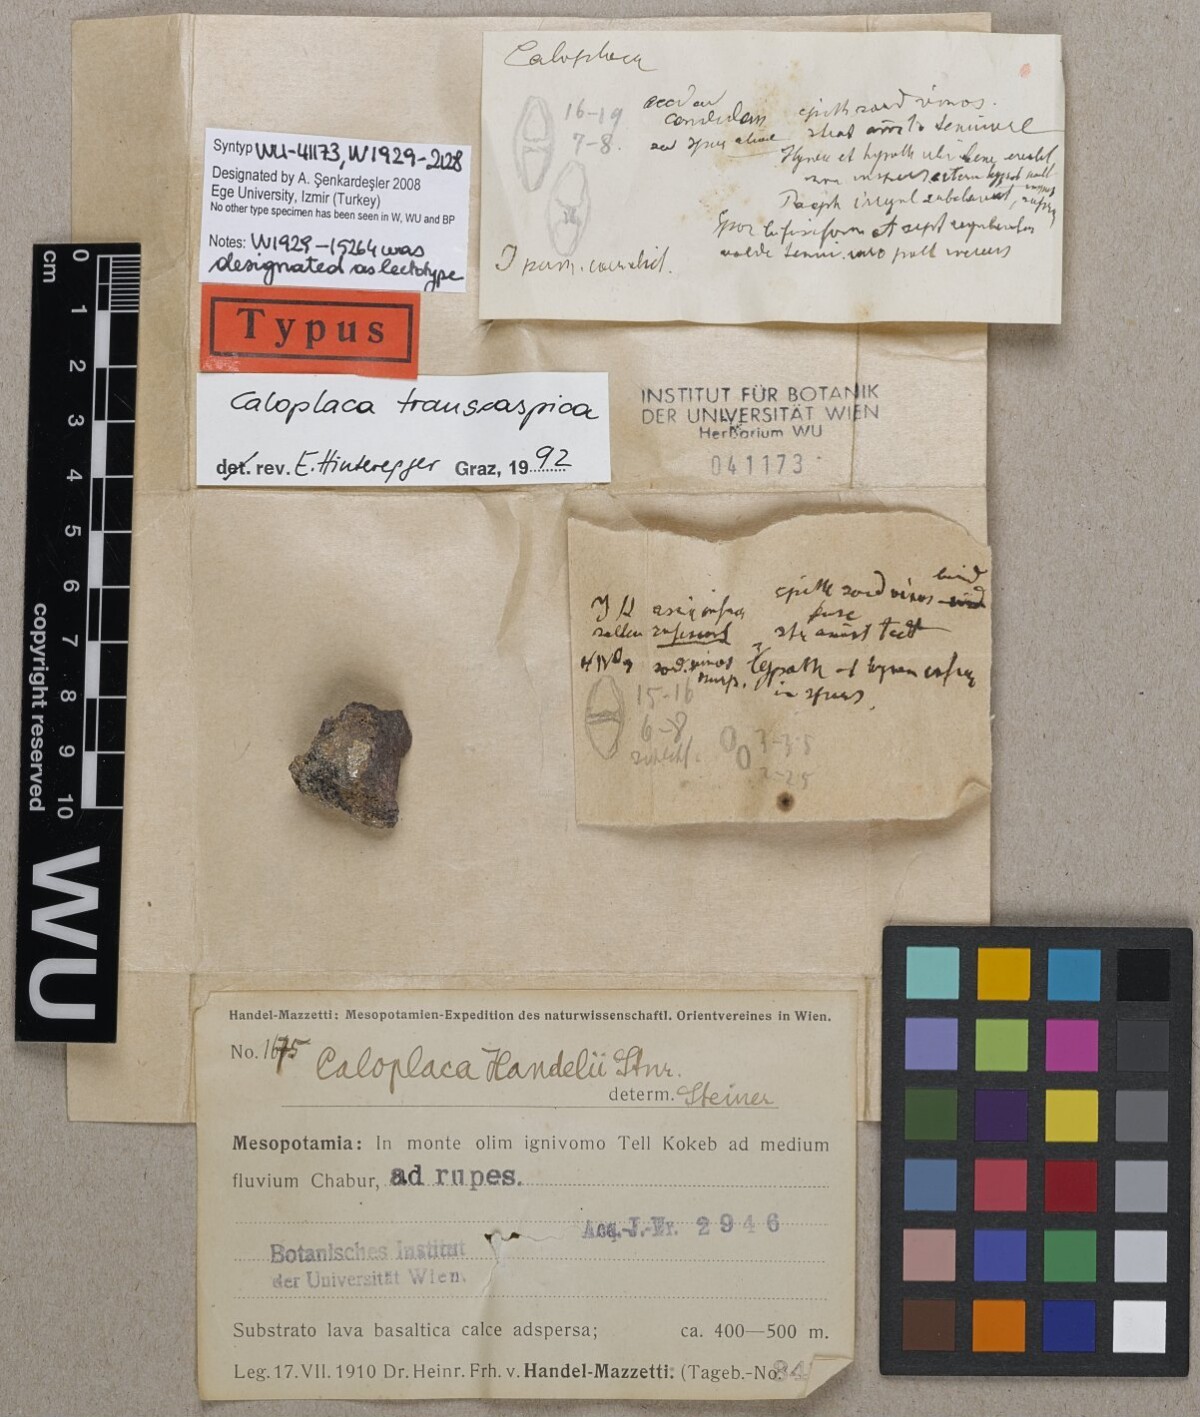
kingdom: Fungi
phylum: Ascomycota
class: Lecanoromycetes
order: Teloschistales
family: Teloschistaceae
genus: Caloplaca
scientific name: Caloplaca
